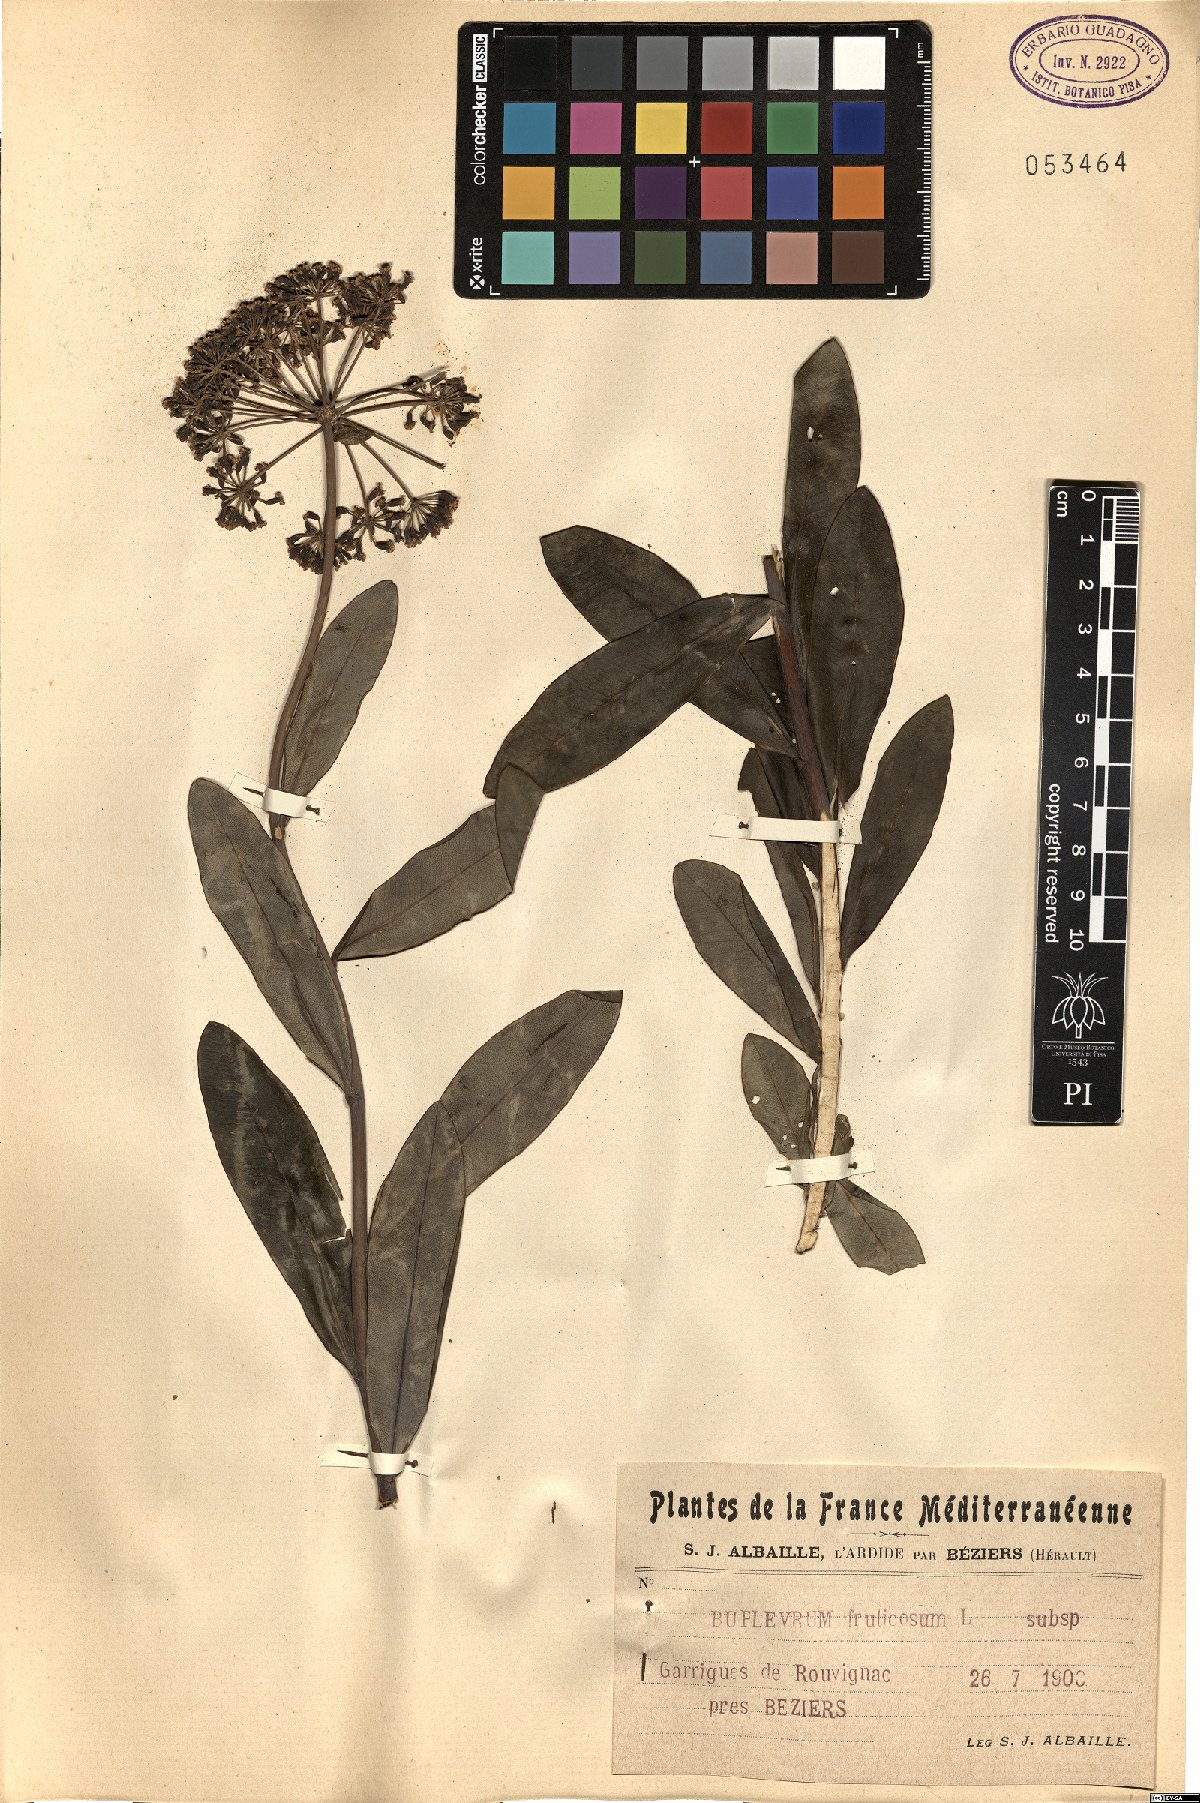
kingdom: Plantae
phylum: Tracheophyta
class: Magnoliopsida
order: Apiales
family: Apiaceae
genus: Bupleurum
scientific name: Bupleurum fruticosum
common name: Shrubby hare's-ear
